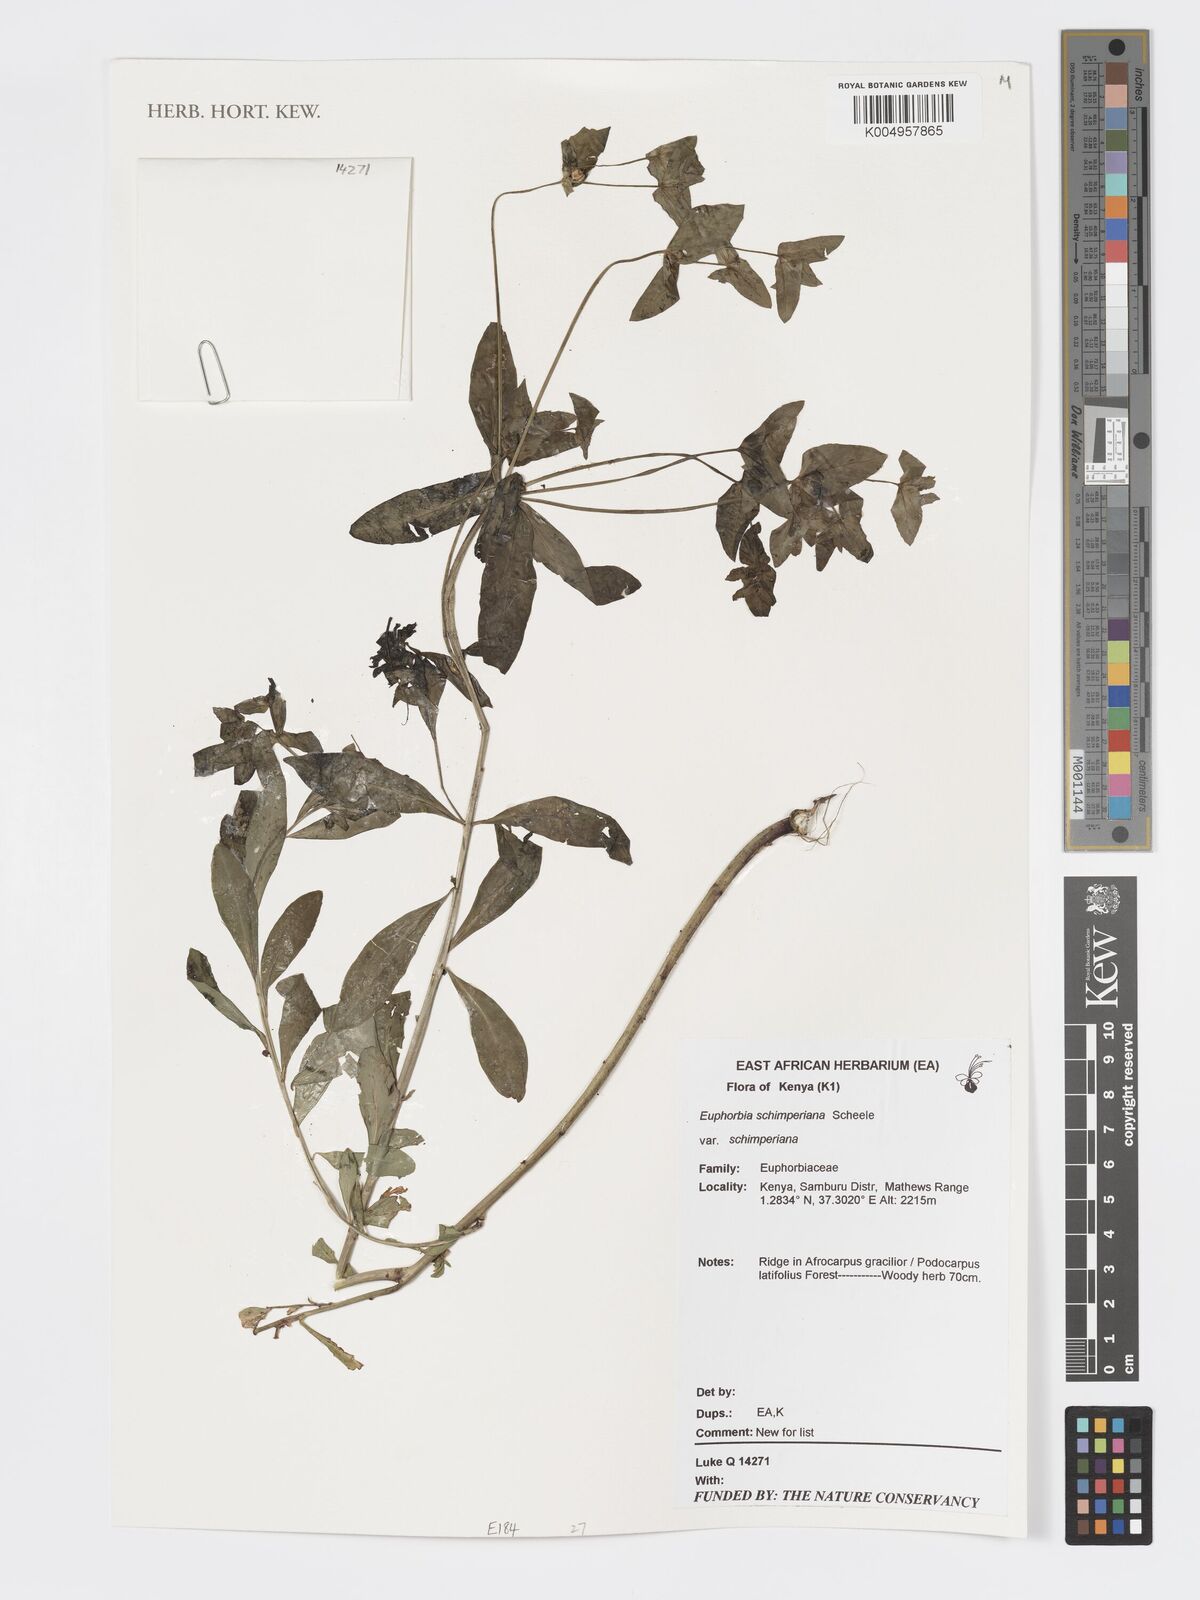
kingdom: Plantae
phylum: Tracheophyta
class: Magnoliopsida
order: Malpighiales
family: Euphorbiaceae
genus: Euphorbia
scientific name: Euphorbia
